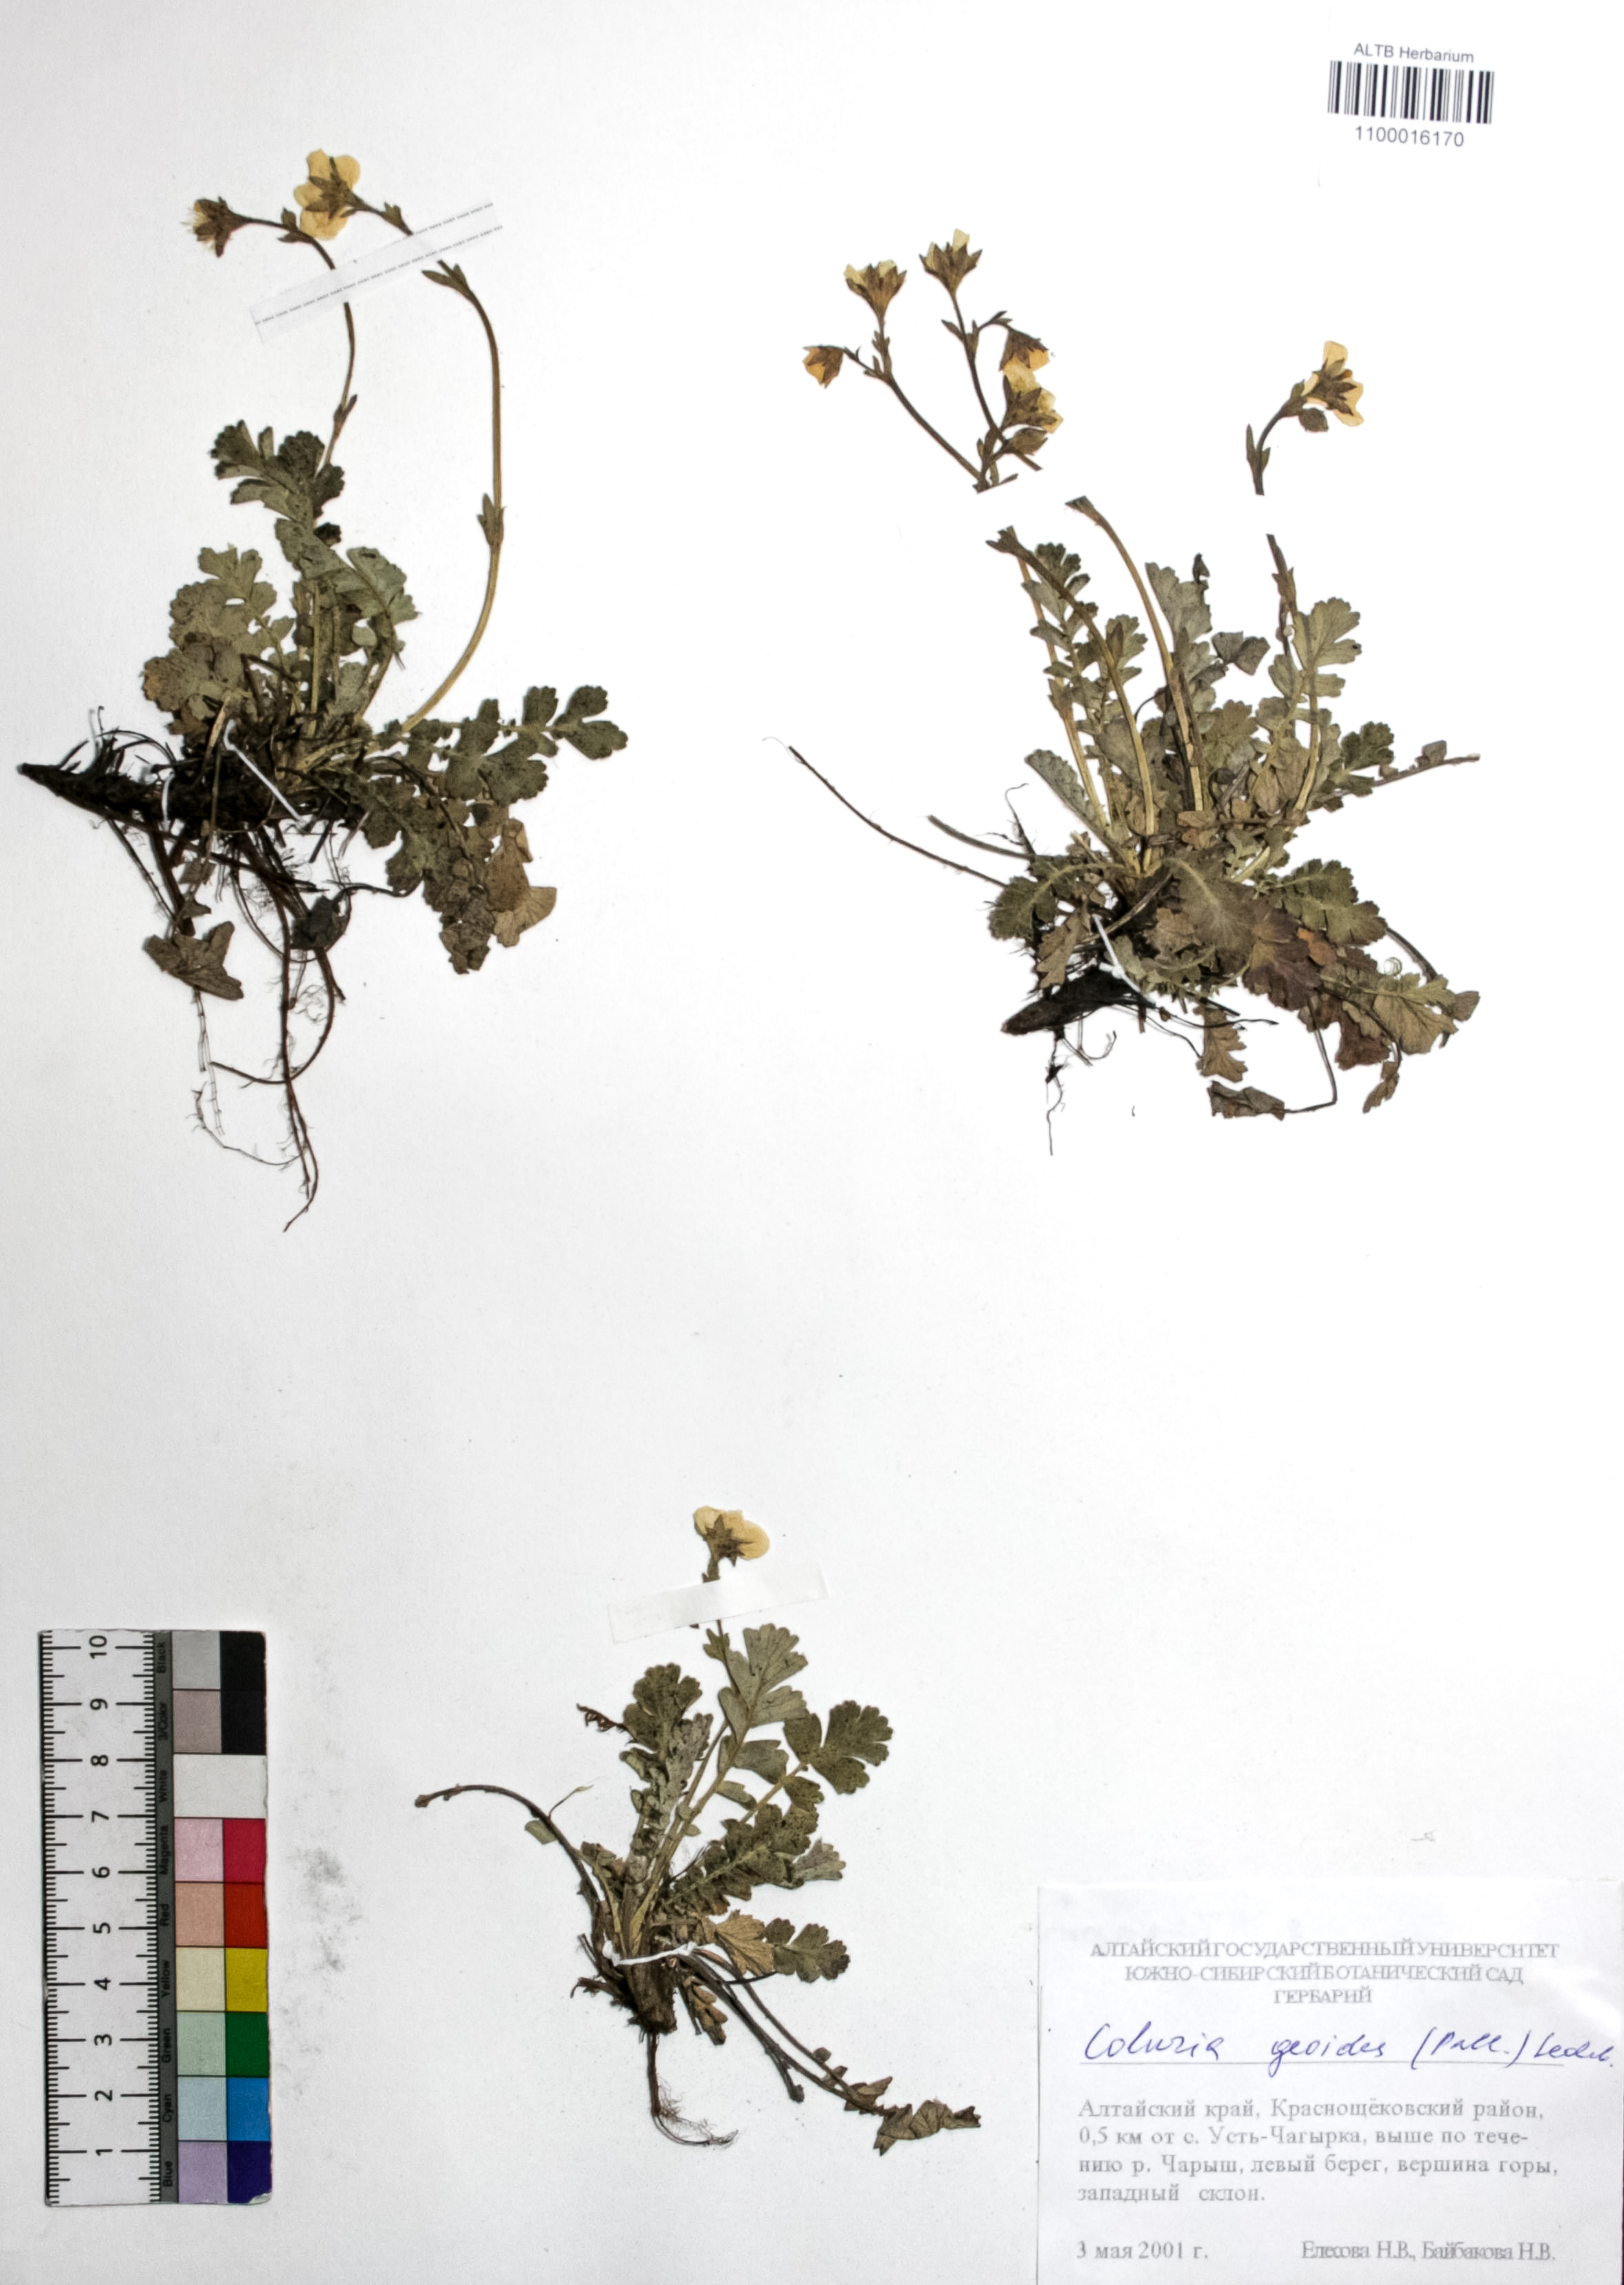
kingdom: Plantae
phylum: Tracheophyta
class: Magnoliopsida
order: Rosales
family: Rosaceae
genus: Geum
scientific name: Geum geoides
